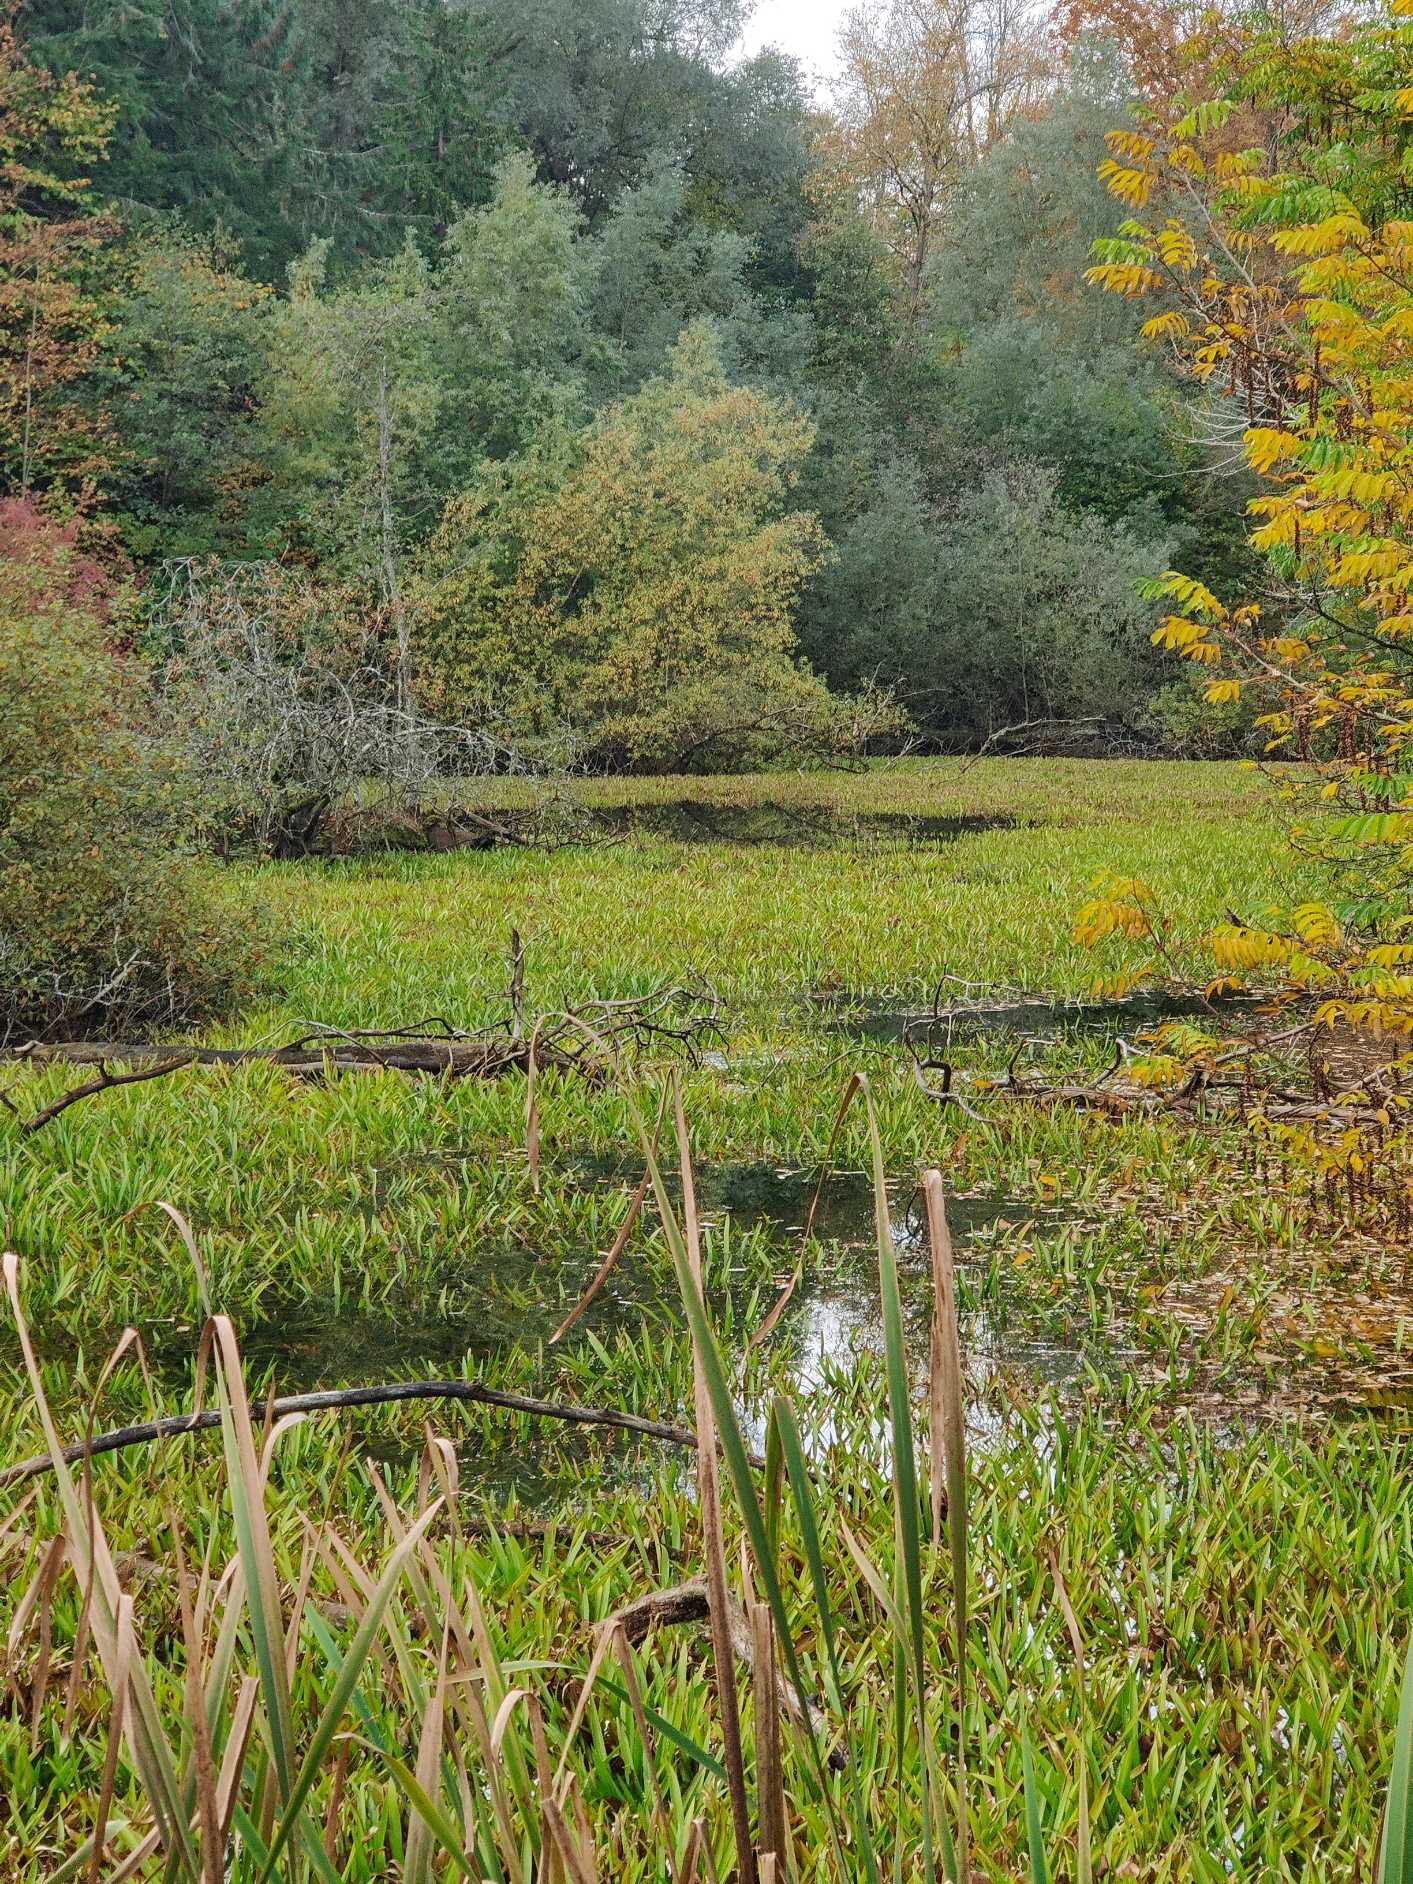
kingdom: Plantae
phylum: Tracheophyta
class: Liliopsida
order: Alismatales
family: Hydrocharitaceae
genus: Stratiotes
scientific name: Stratiotes aloides
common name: Krebseklo
